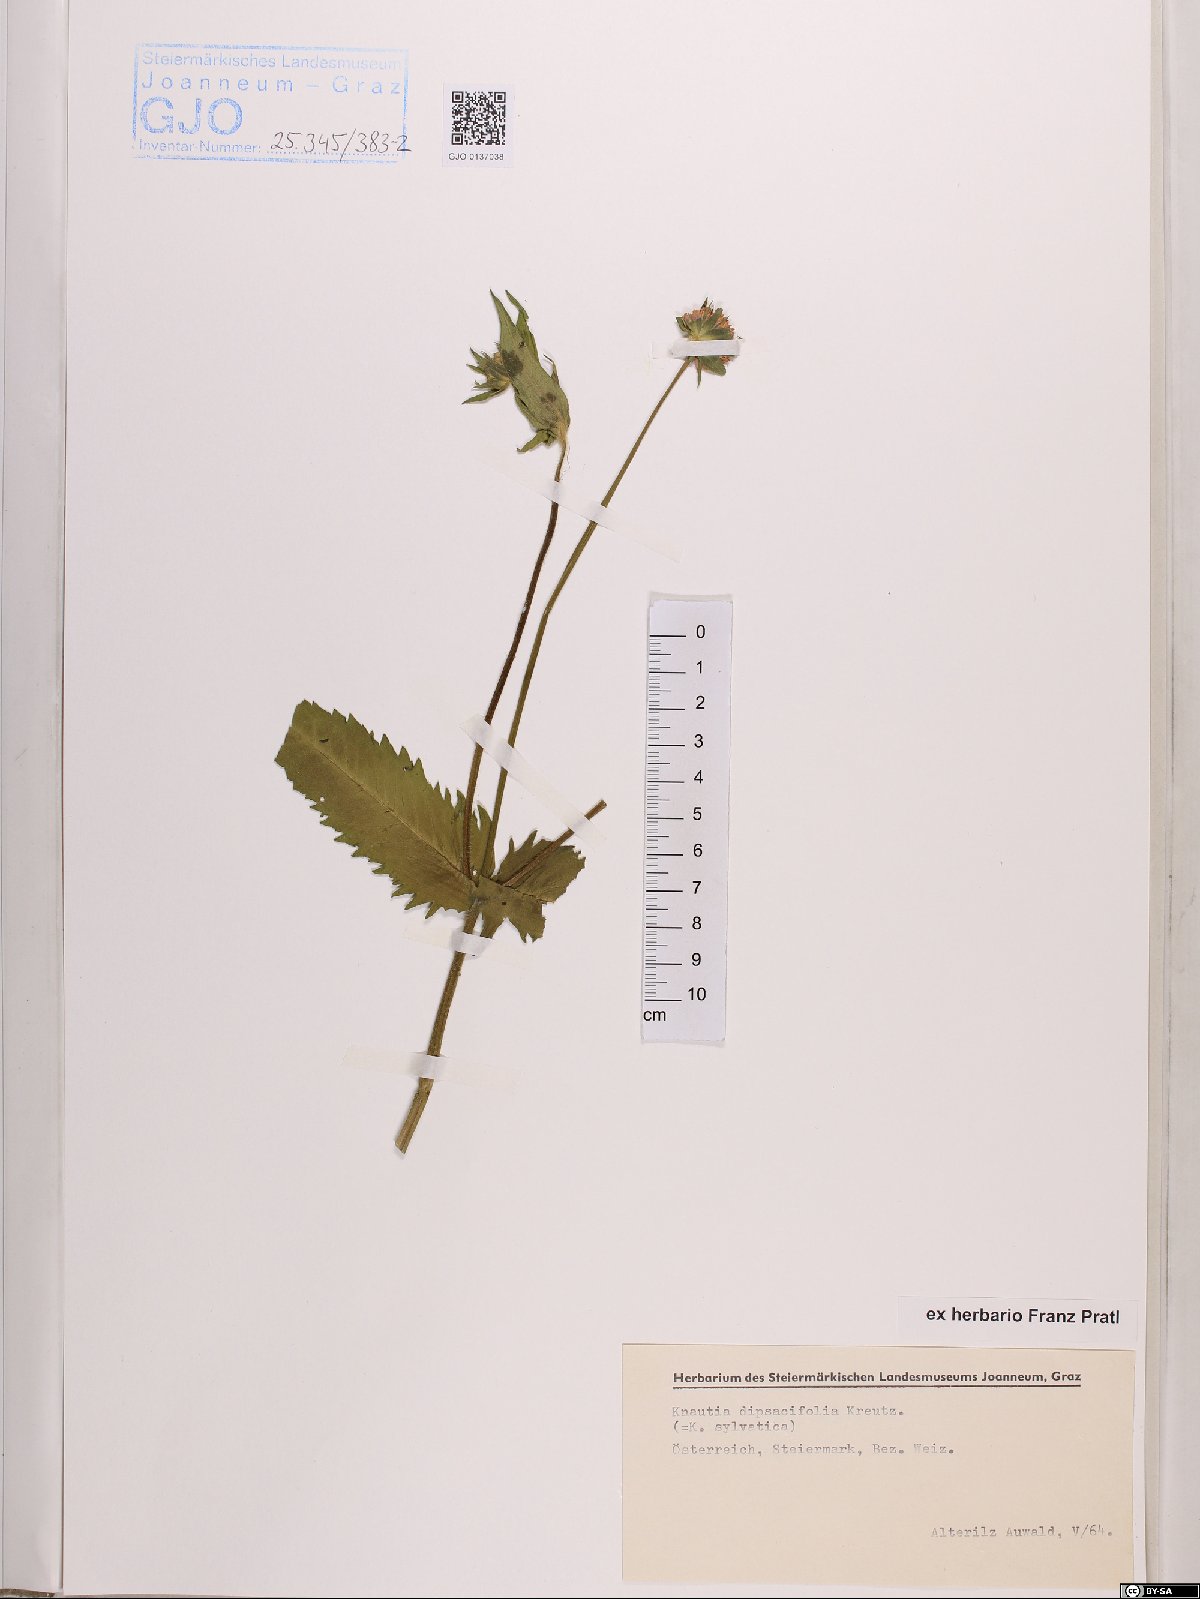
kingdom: Plantae
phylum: Tracheophyta
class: Magnoliopsida
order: Dipsacales
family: Caprifoliaceae
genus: Knautia
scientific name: Knautia dipsacifolia
